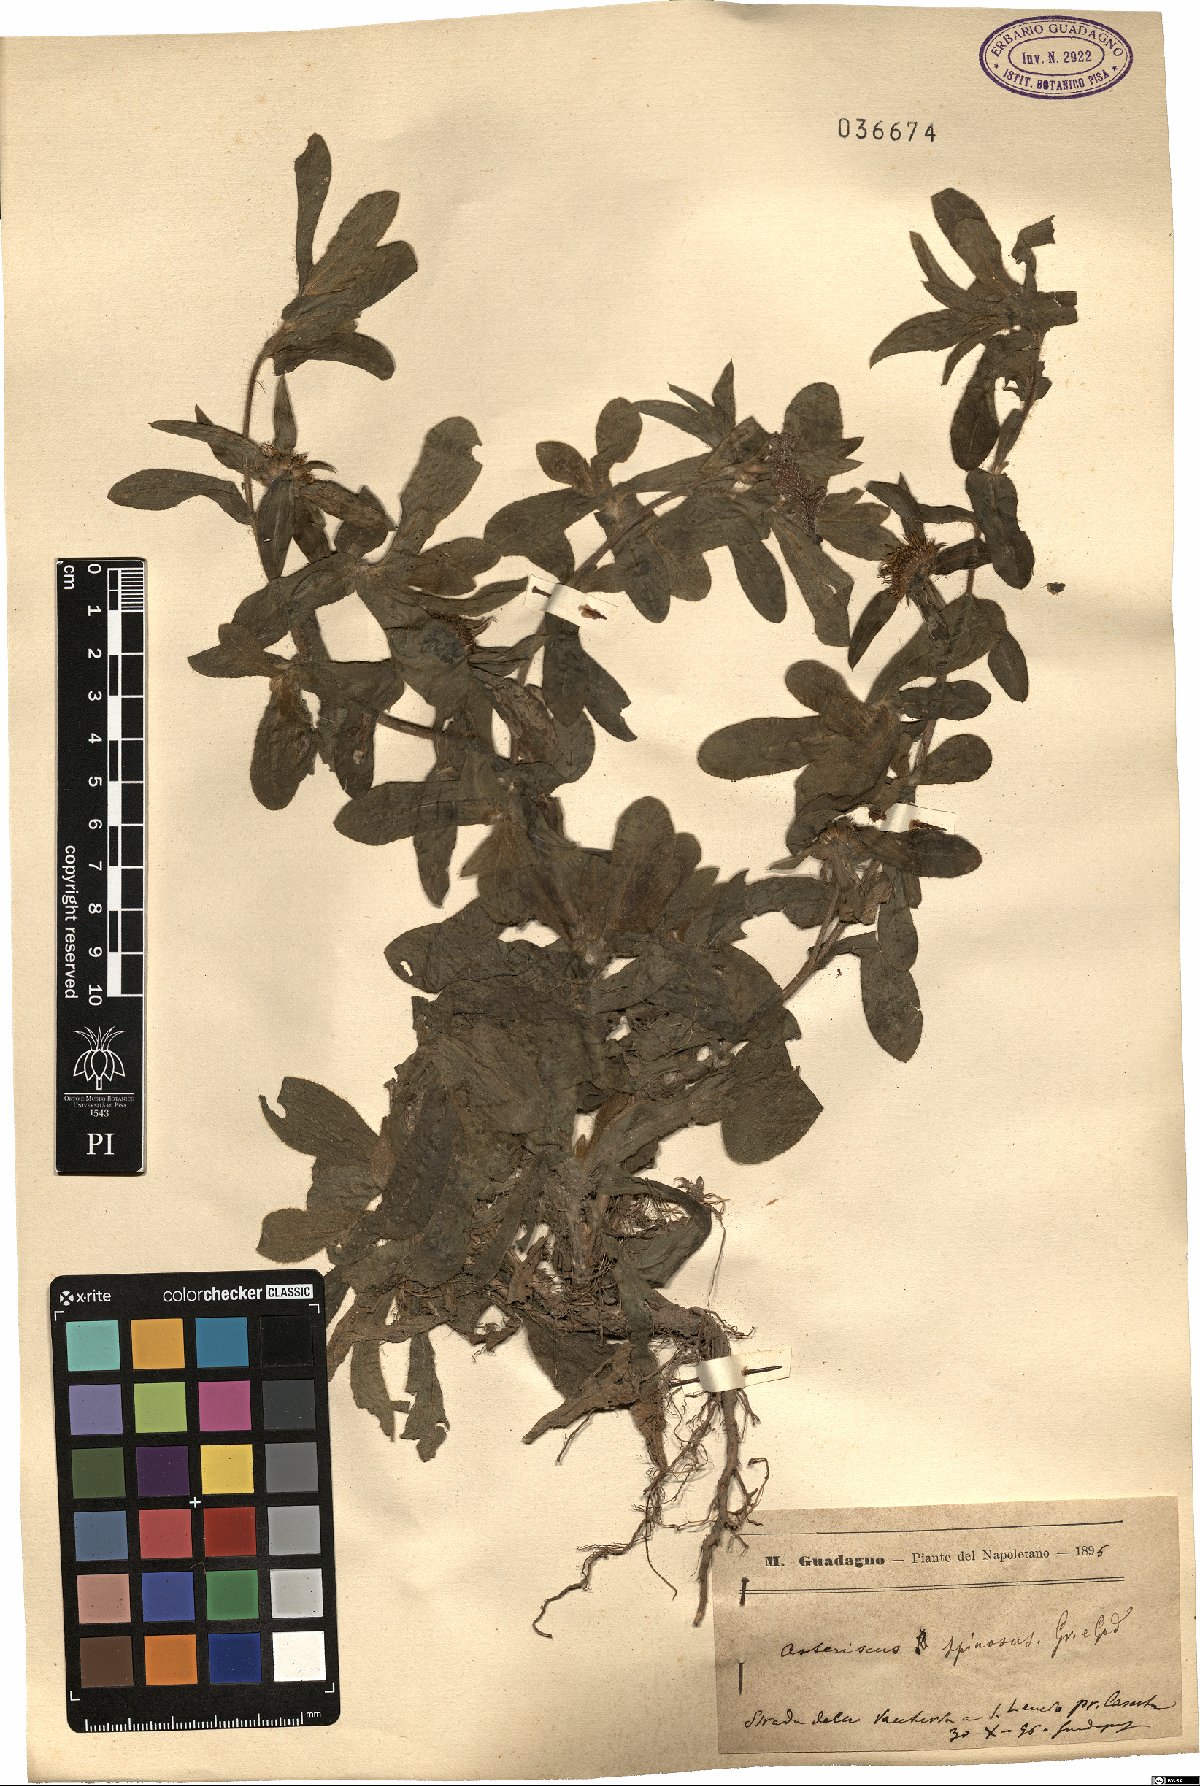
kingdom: Plantae
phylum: Tracheophyta
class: Magnoliopsida
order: Asterales
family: Asteraceae
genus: Pallenis
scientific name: Pallenis spinosa
